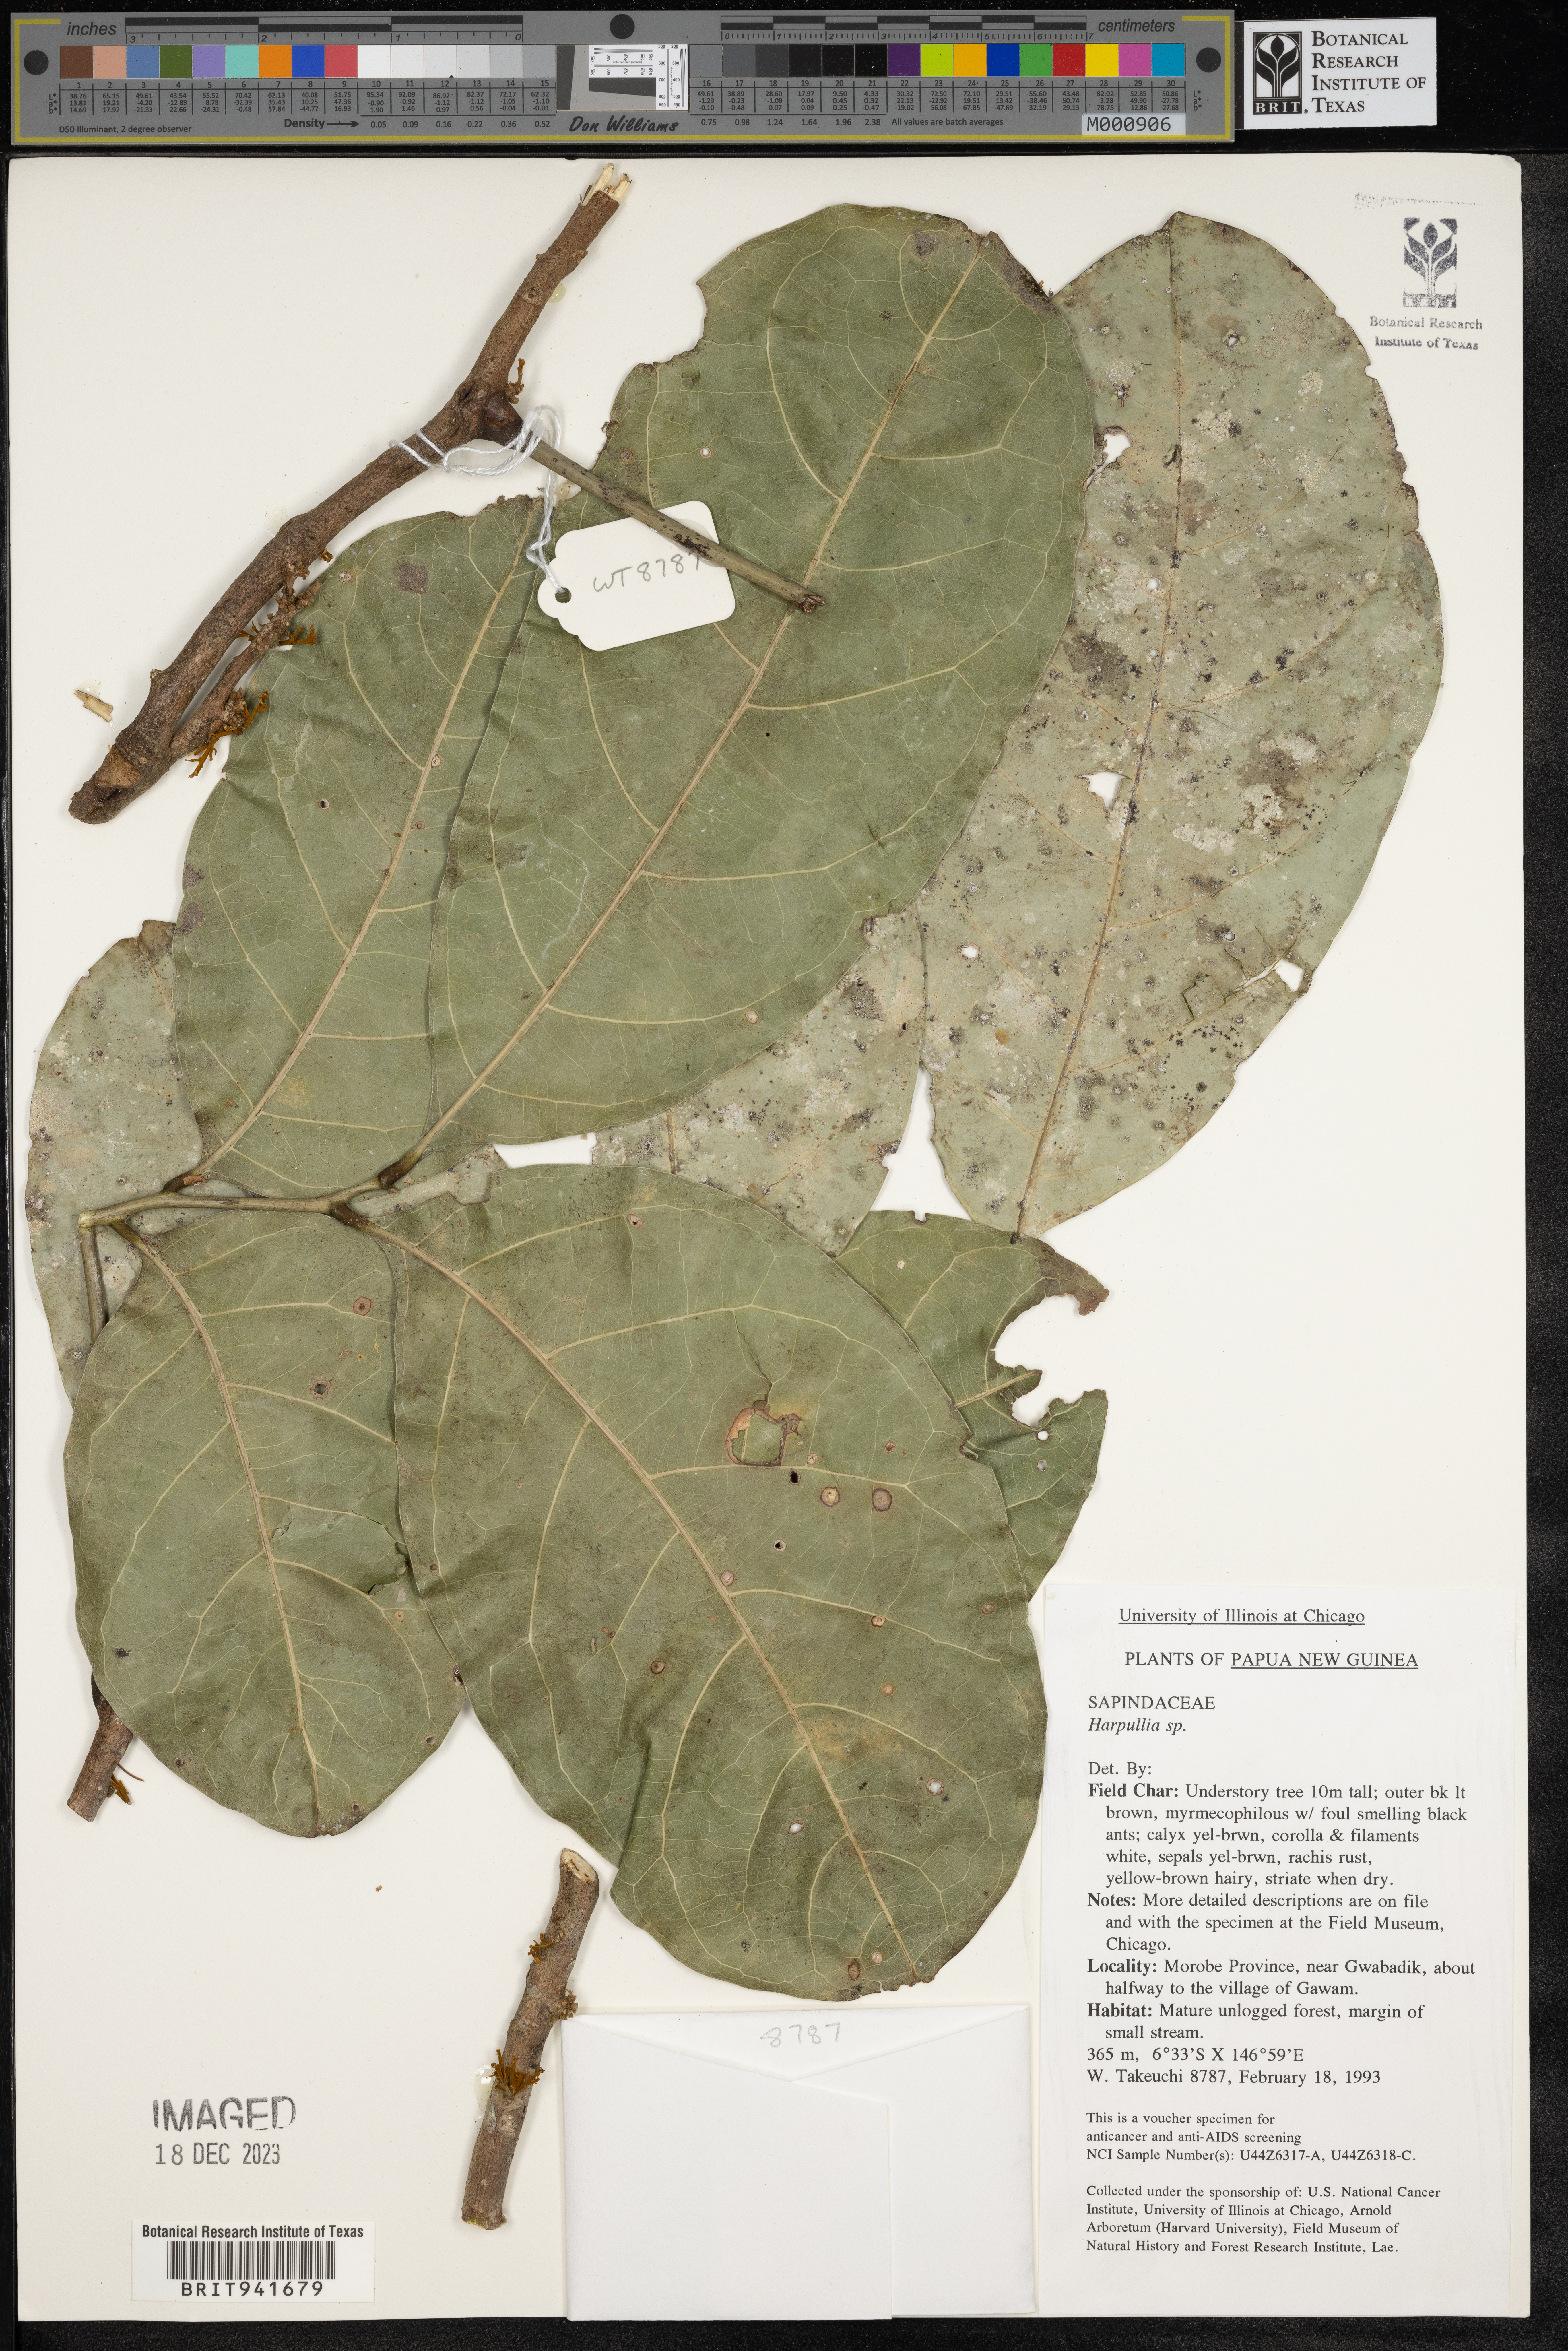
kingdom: Plantae
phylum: Tracheophyta
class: Magnoliopsida
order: Sapindales
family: Sapindaceae
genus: Harpullia
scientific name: Harpullia
